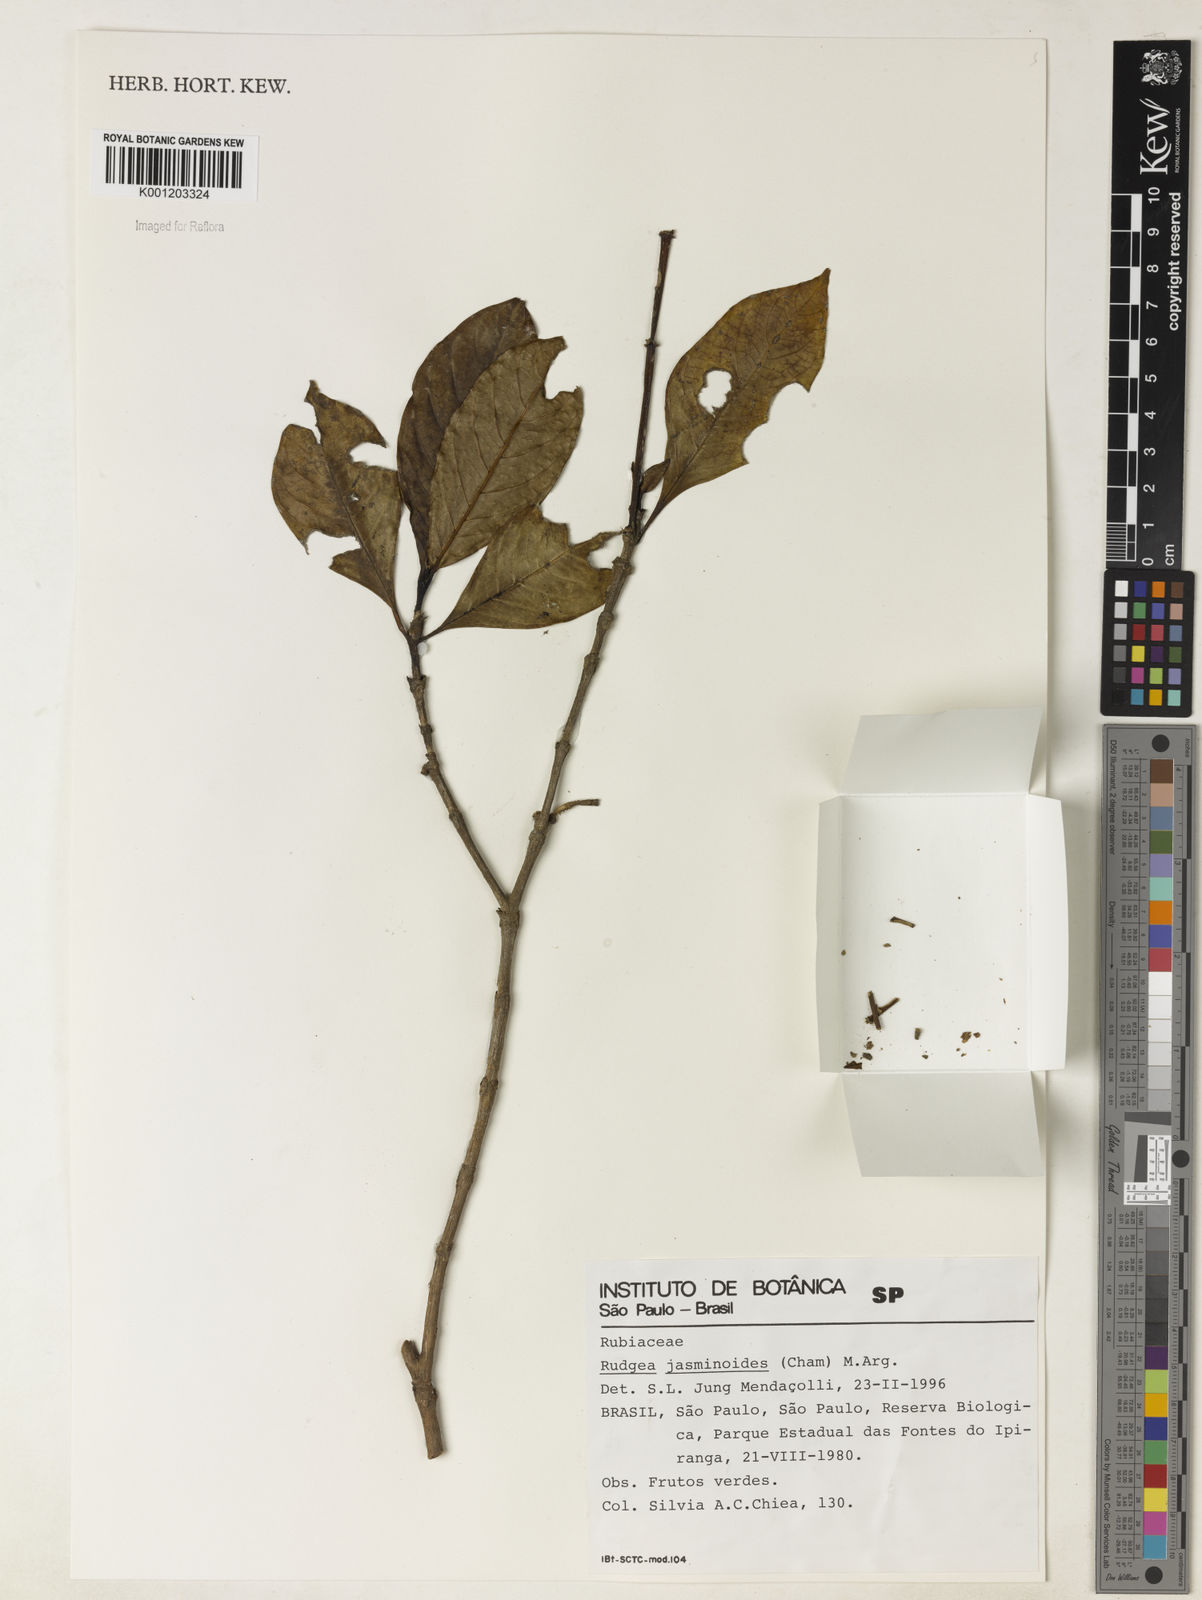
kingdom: Plantae
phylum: Tracheophyta
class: Magnoliopsida
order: Gentianales
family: Rubiaceae
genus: Rudgea
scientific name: Rudgea
